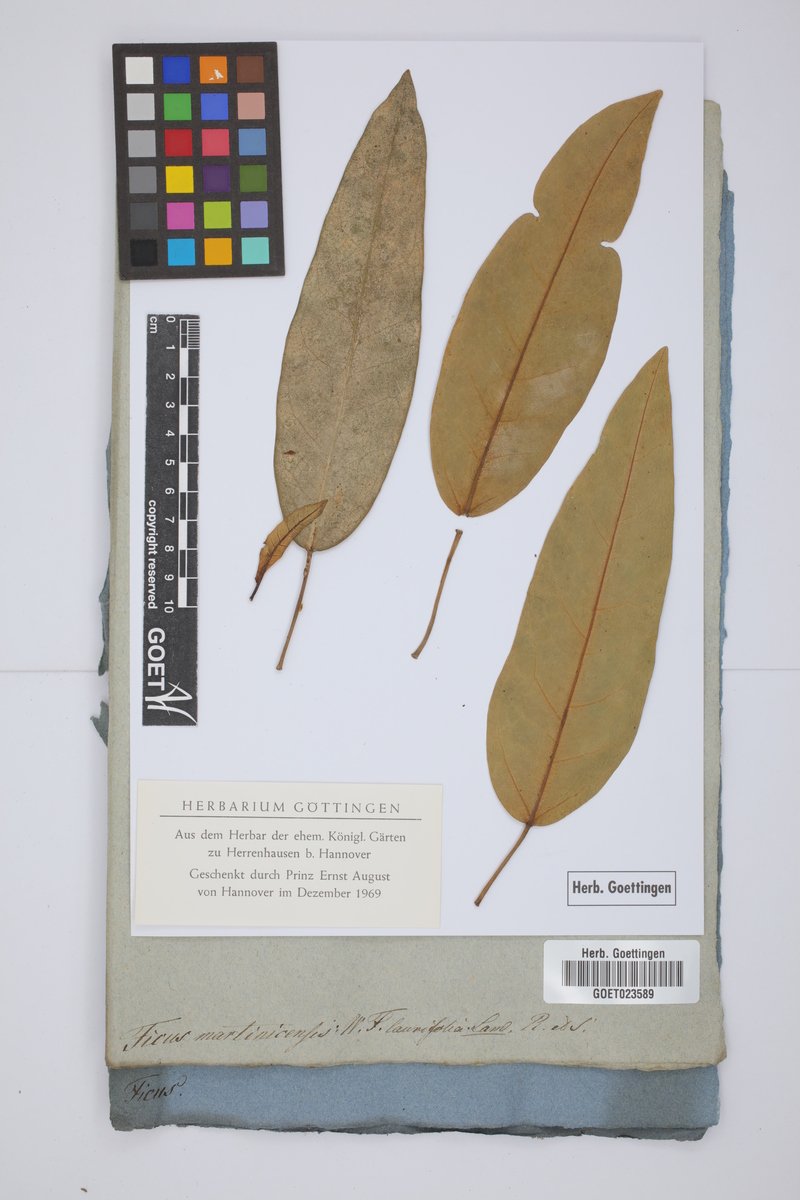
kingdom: Plantae
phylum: Tracheophyta
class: Magnoliopsida
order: Rosales
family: Moraceae
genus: Ficus
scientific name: Ficus laurifolia
